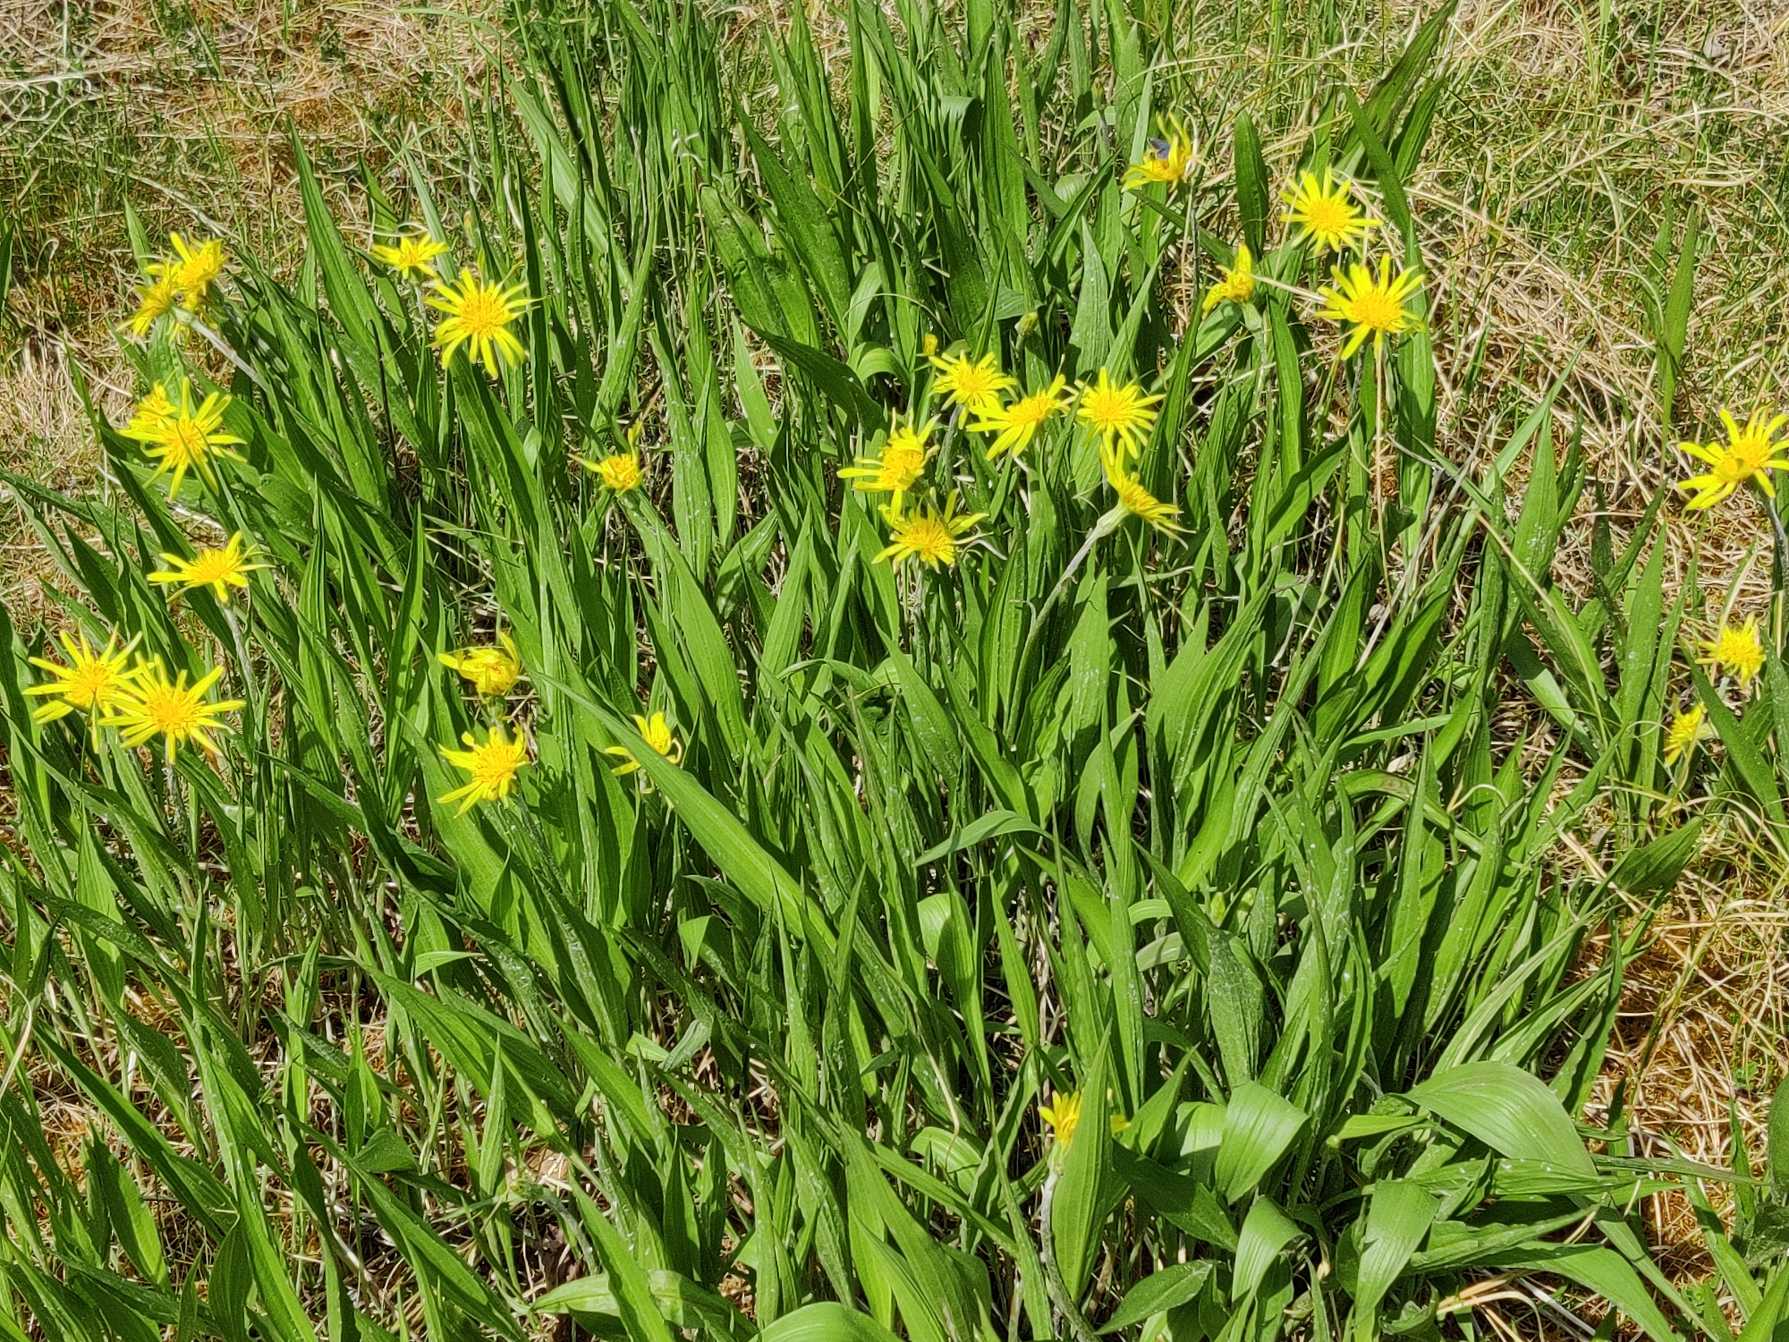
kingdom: Plantae
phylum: Tracheophyta
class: Magnoliopsida
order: Asterales
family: Asteraceae
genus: Scorzonera
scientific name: Scorzonera humilis
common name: Lav skorsoner
